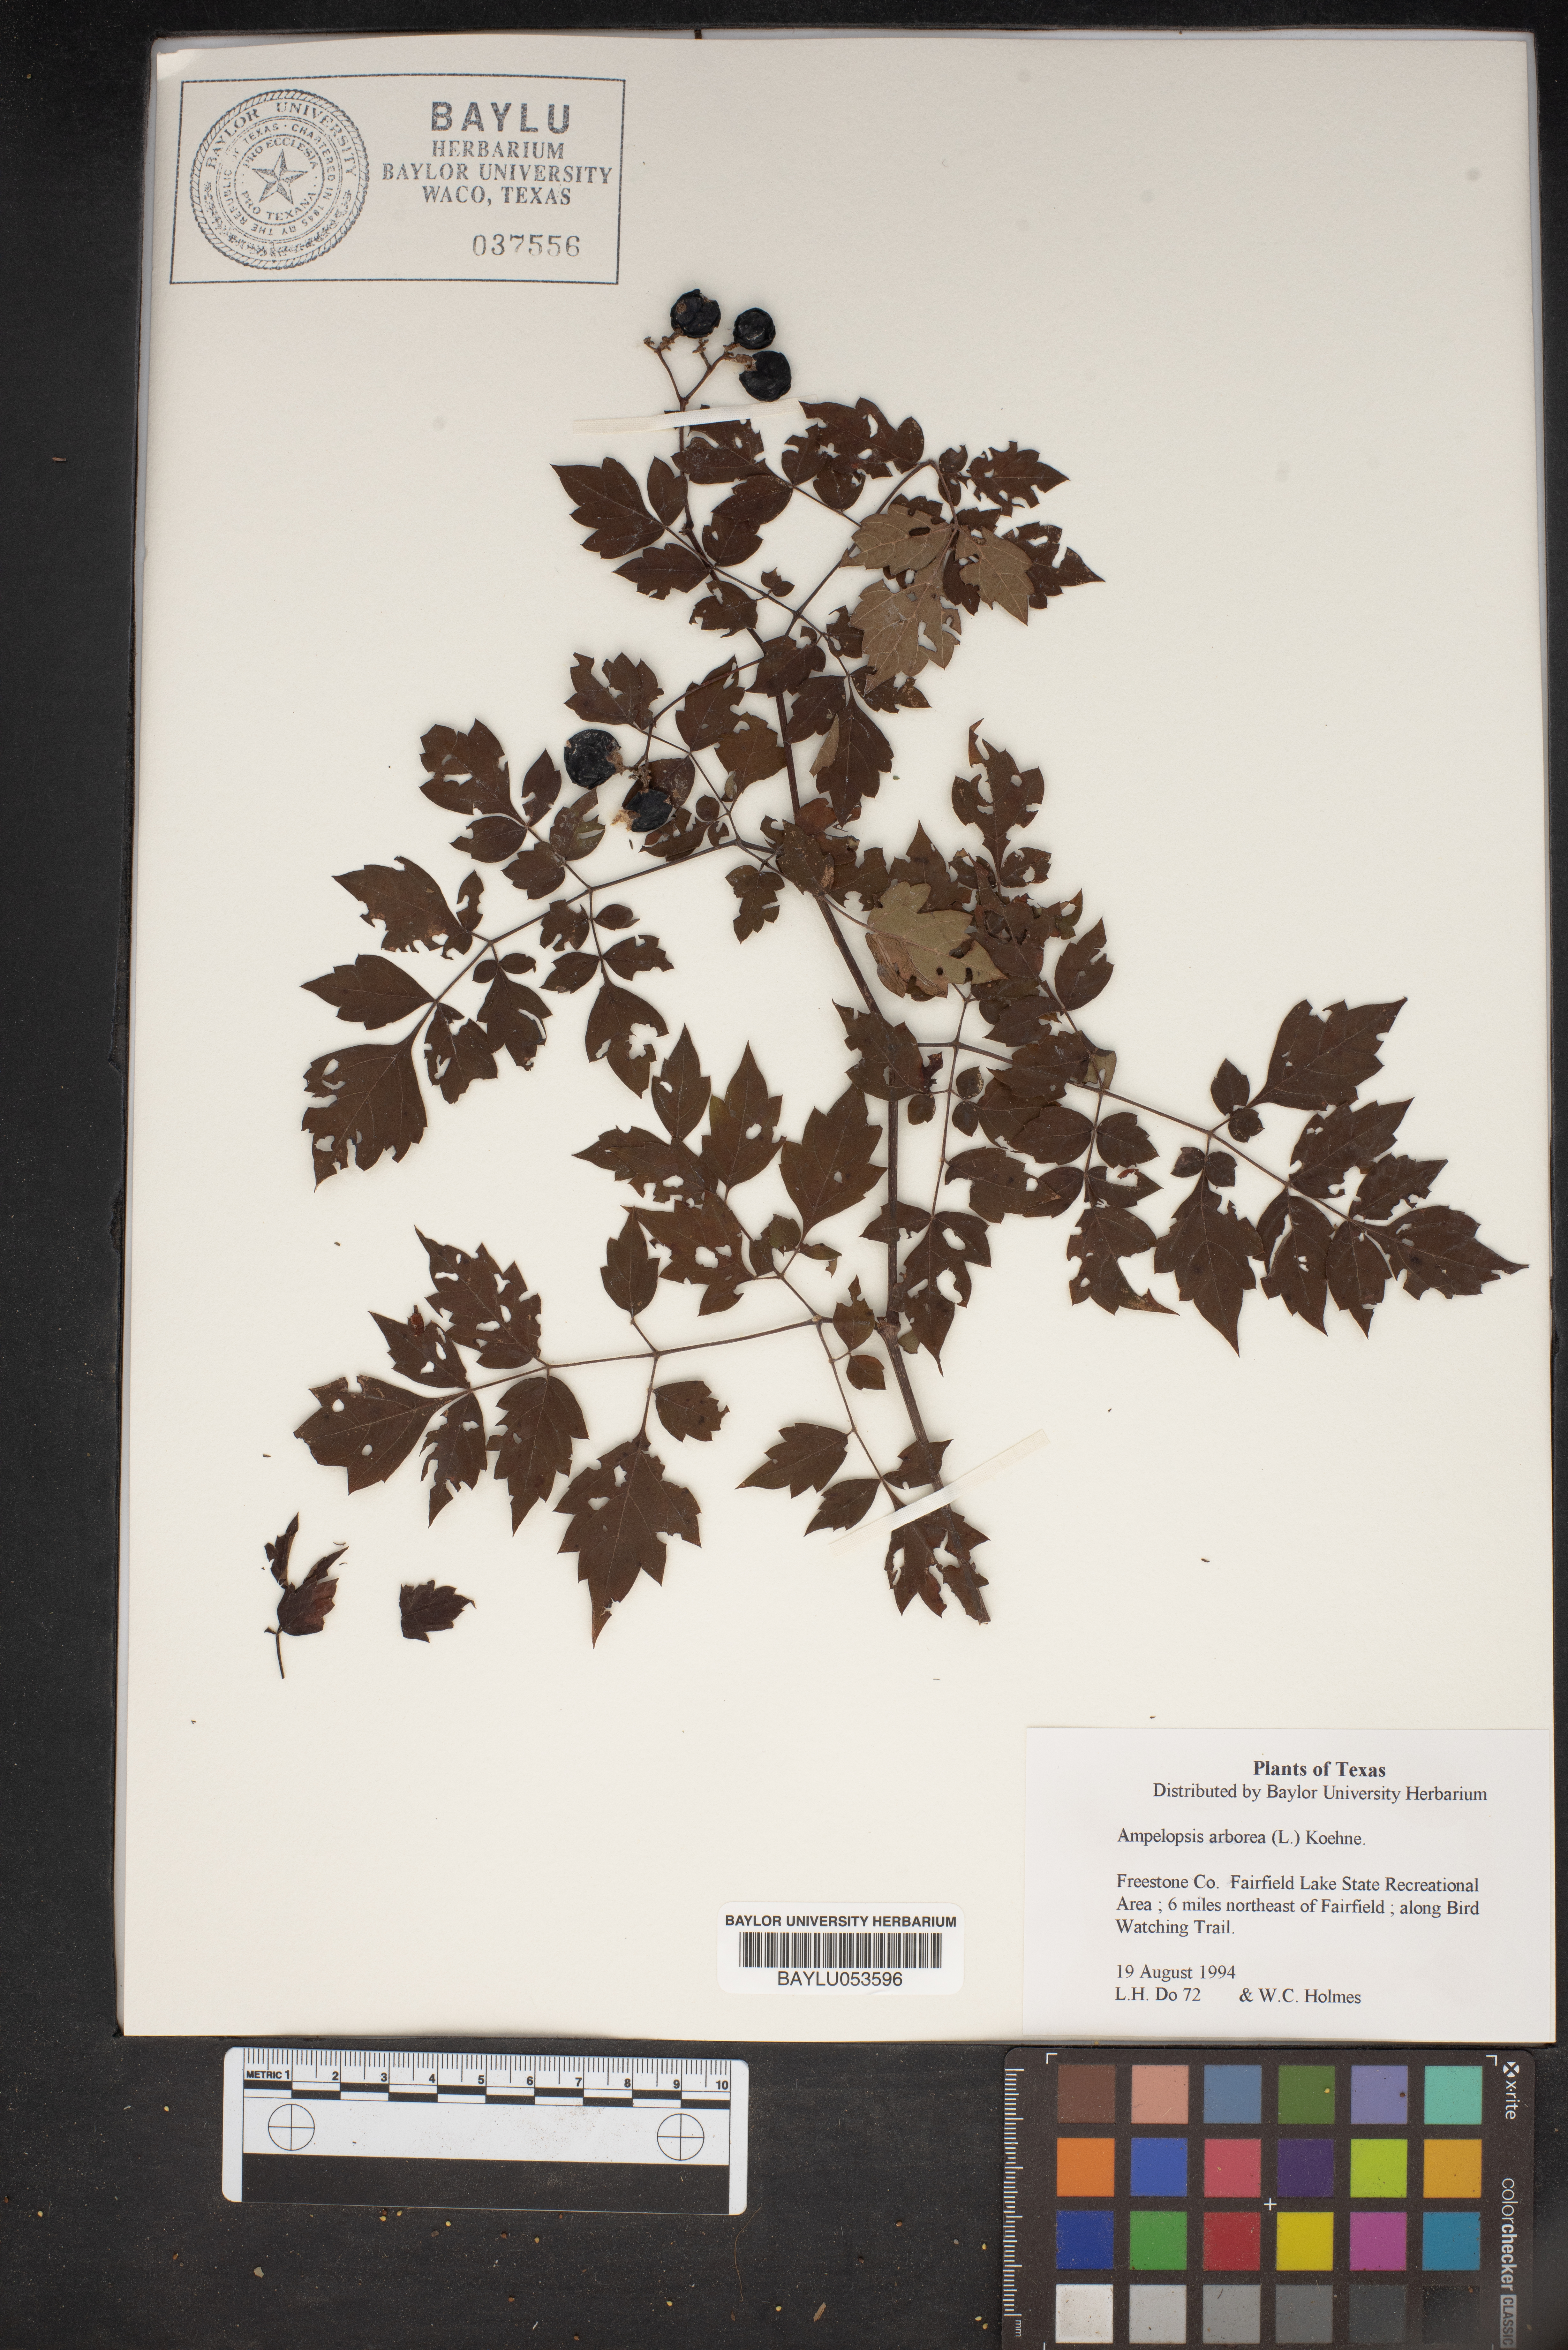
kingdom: Plantae
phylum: Tracheophyta
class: Magnoliopsida
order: Vitales
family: Vitaceae
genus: Nekemias
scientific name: Nekemias arborea
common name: Peppervine
